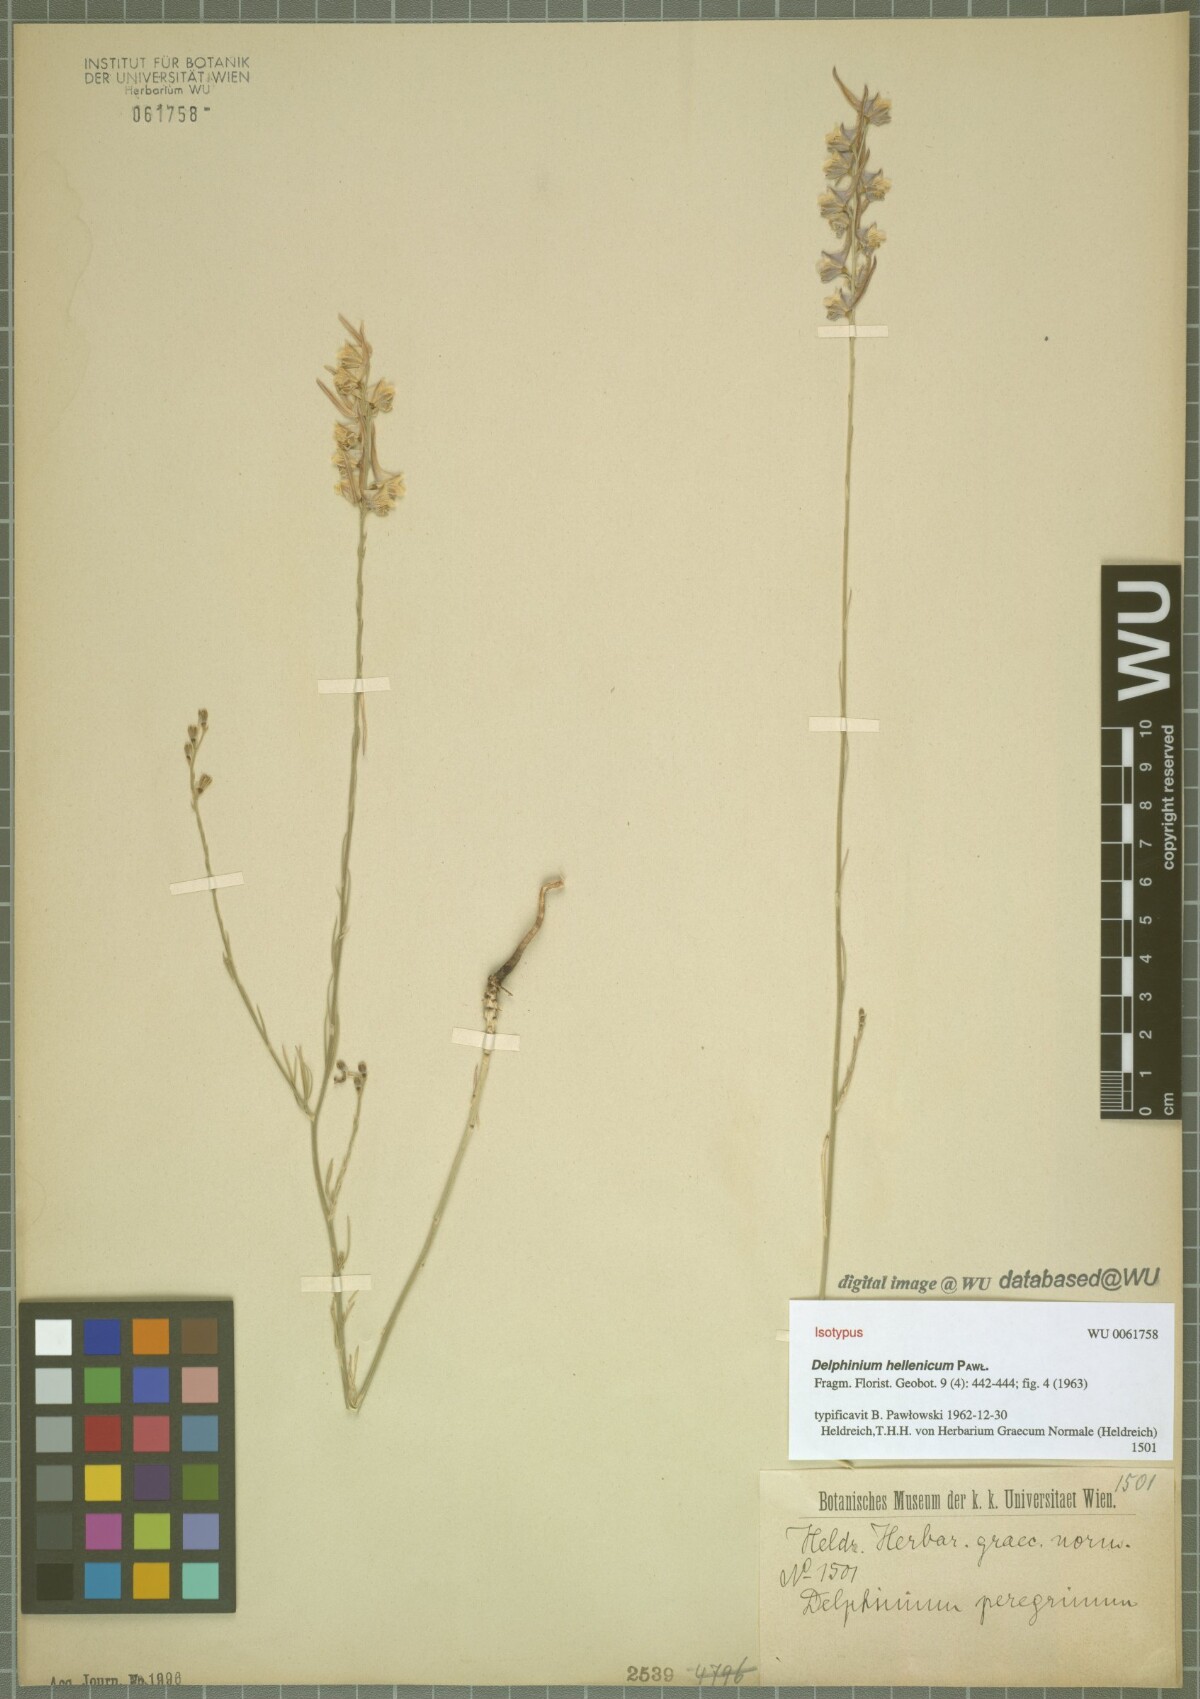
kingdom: Plantae
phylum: Tracheophyta
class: Magnoliopsida
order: Ranunculales
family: Ranunculaceae
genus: Delphinium
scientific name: Delphinium hellenicum
